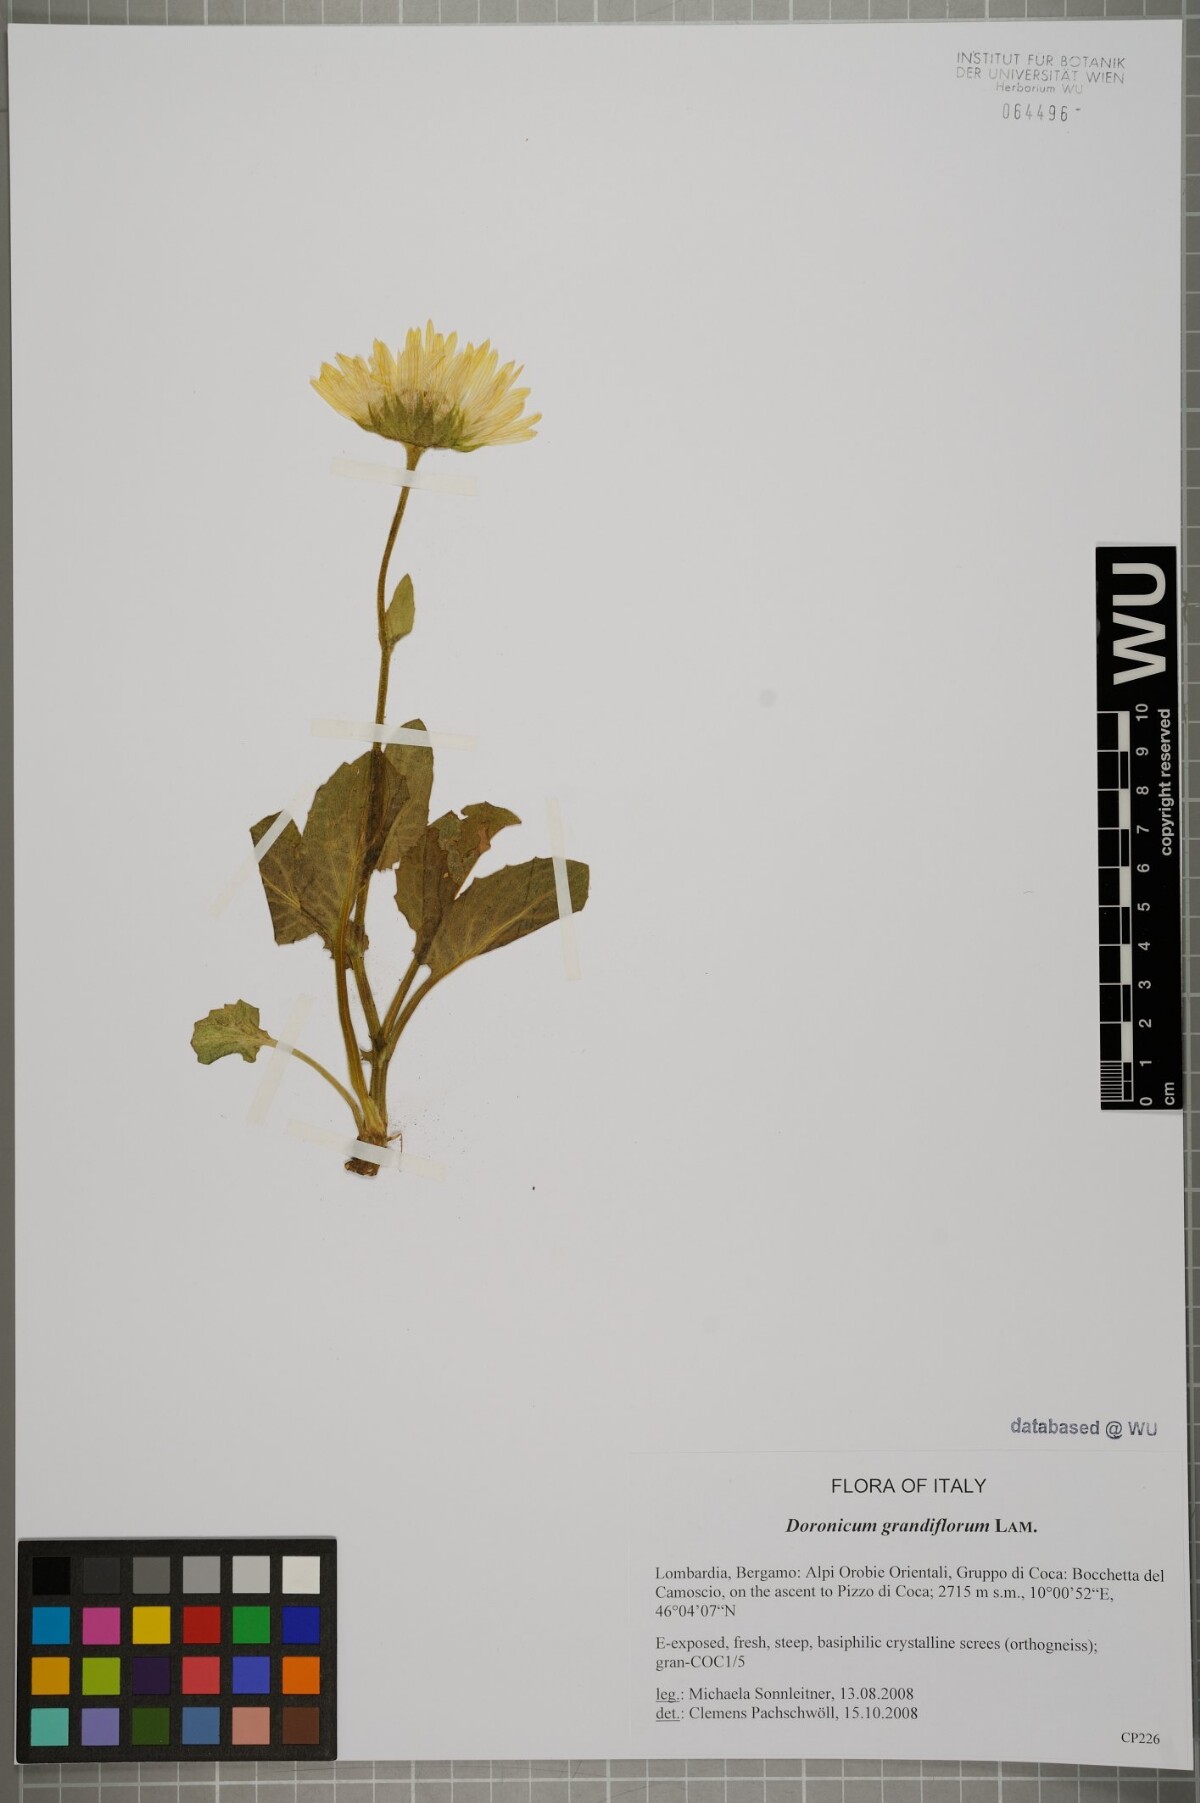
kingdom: Plantae
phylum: Tracheophyta
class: Magnoliopsida
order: Asterales
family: Asteraceae
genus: Doronicum
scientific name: Doronicum grandiflorum
